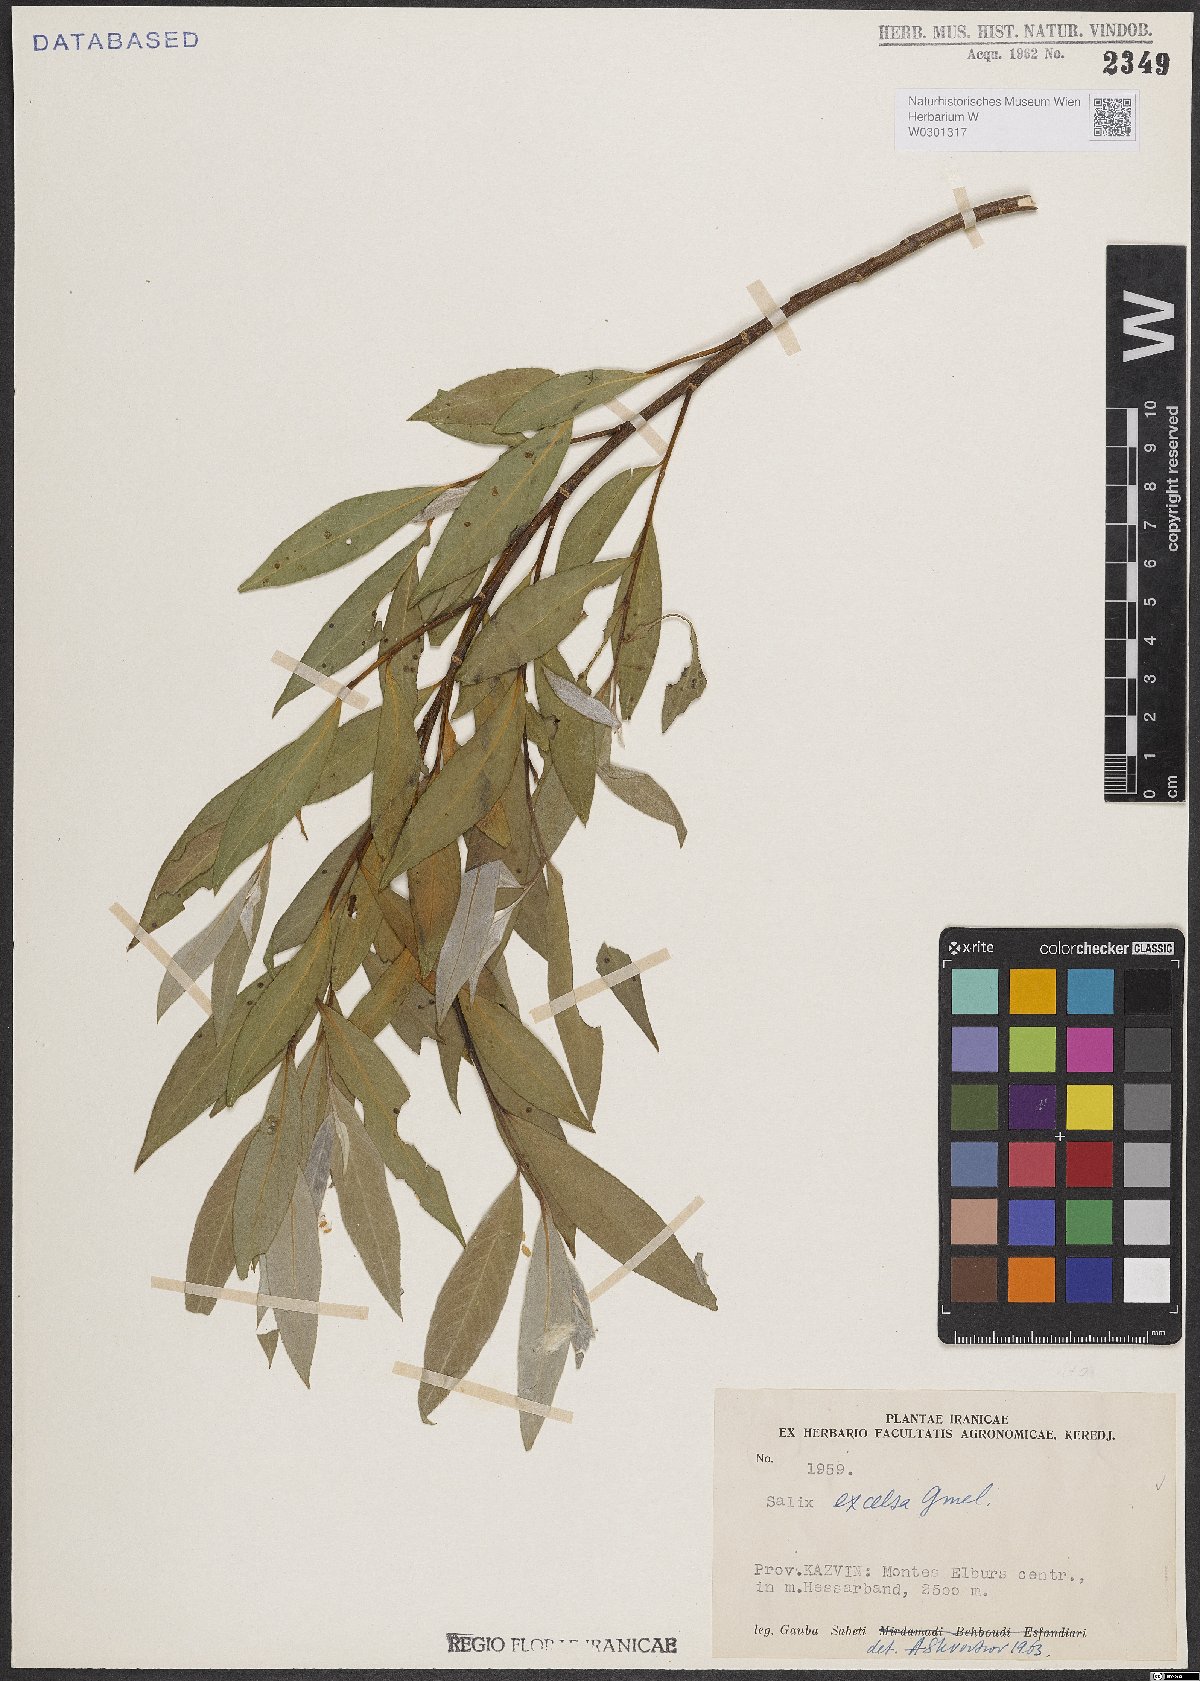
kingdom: Plantae
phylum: Tracheophyta
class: Magnoliopsida
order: Malpighiales
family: Salicaceae
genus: Salix
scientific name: Salix excelsa
